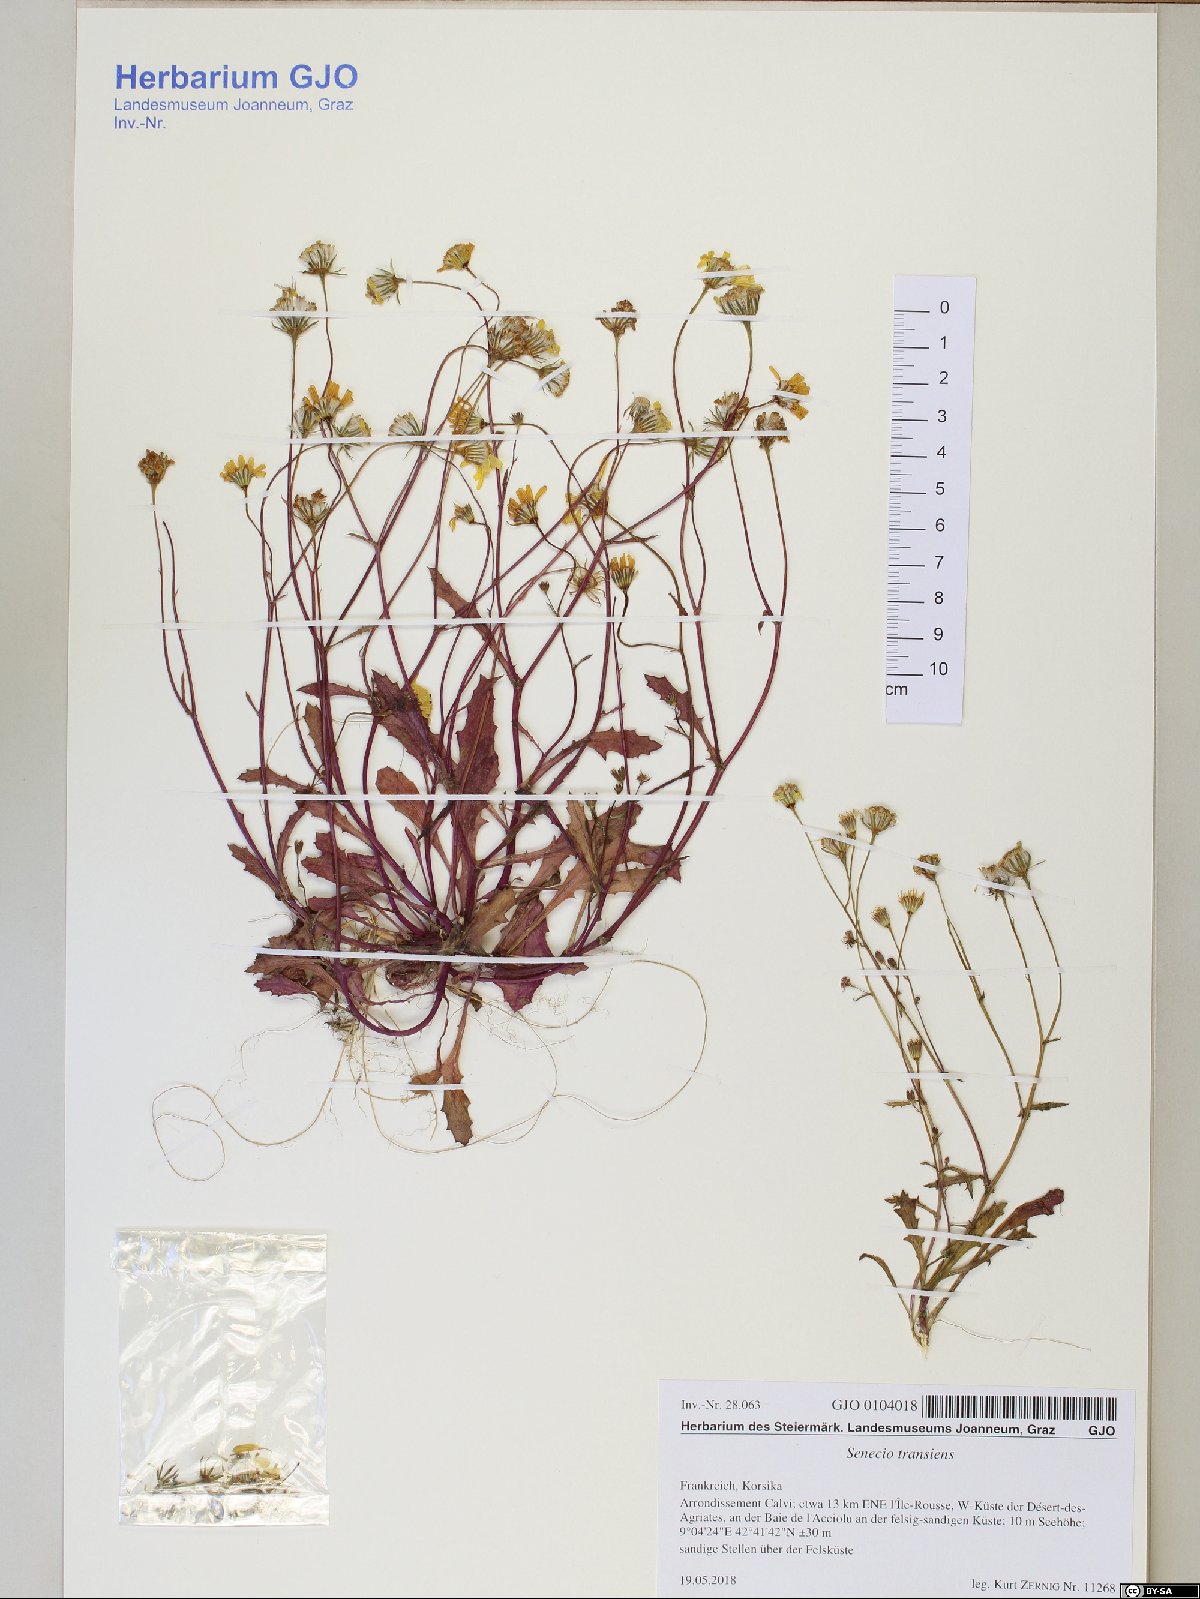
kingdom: Plantae
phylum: Tracheophyta
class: Magnoliopsida
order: Asterales
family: Asteraceae
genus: Senecio
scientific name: Senecio transiens
